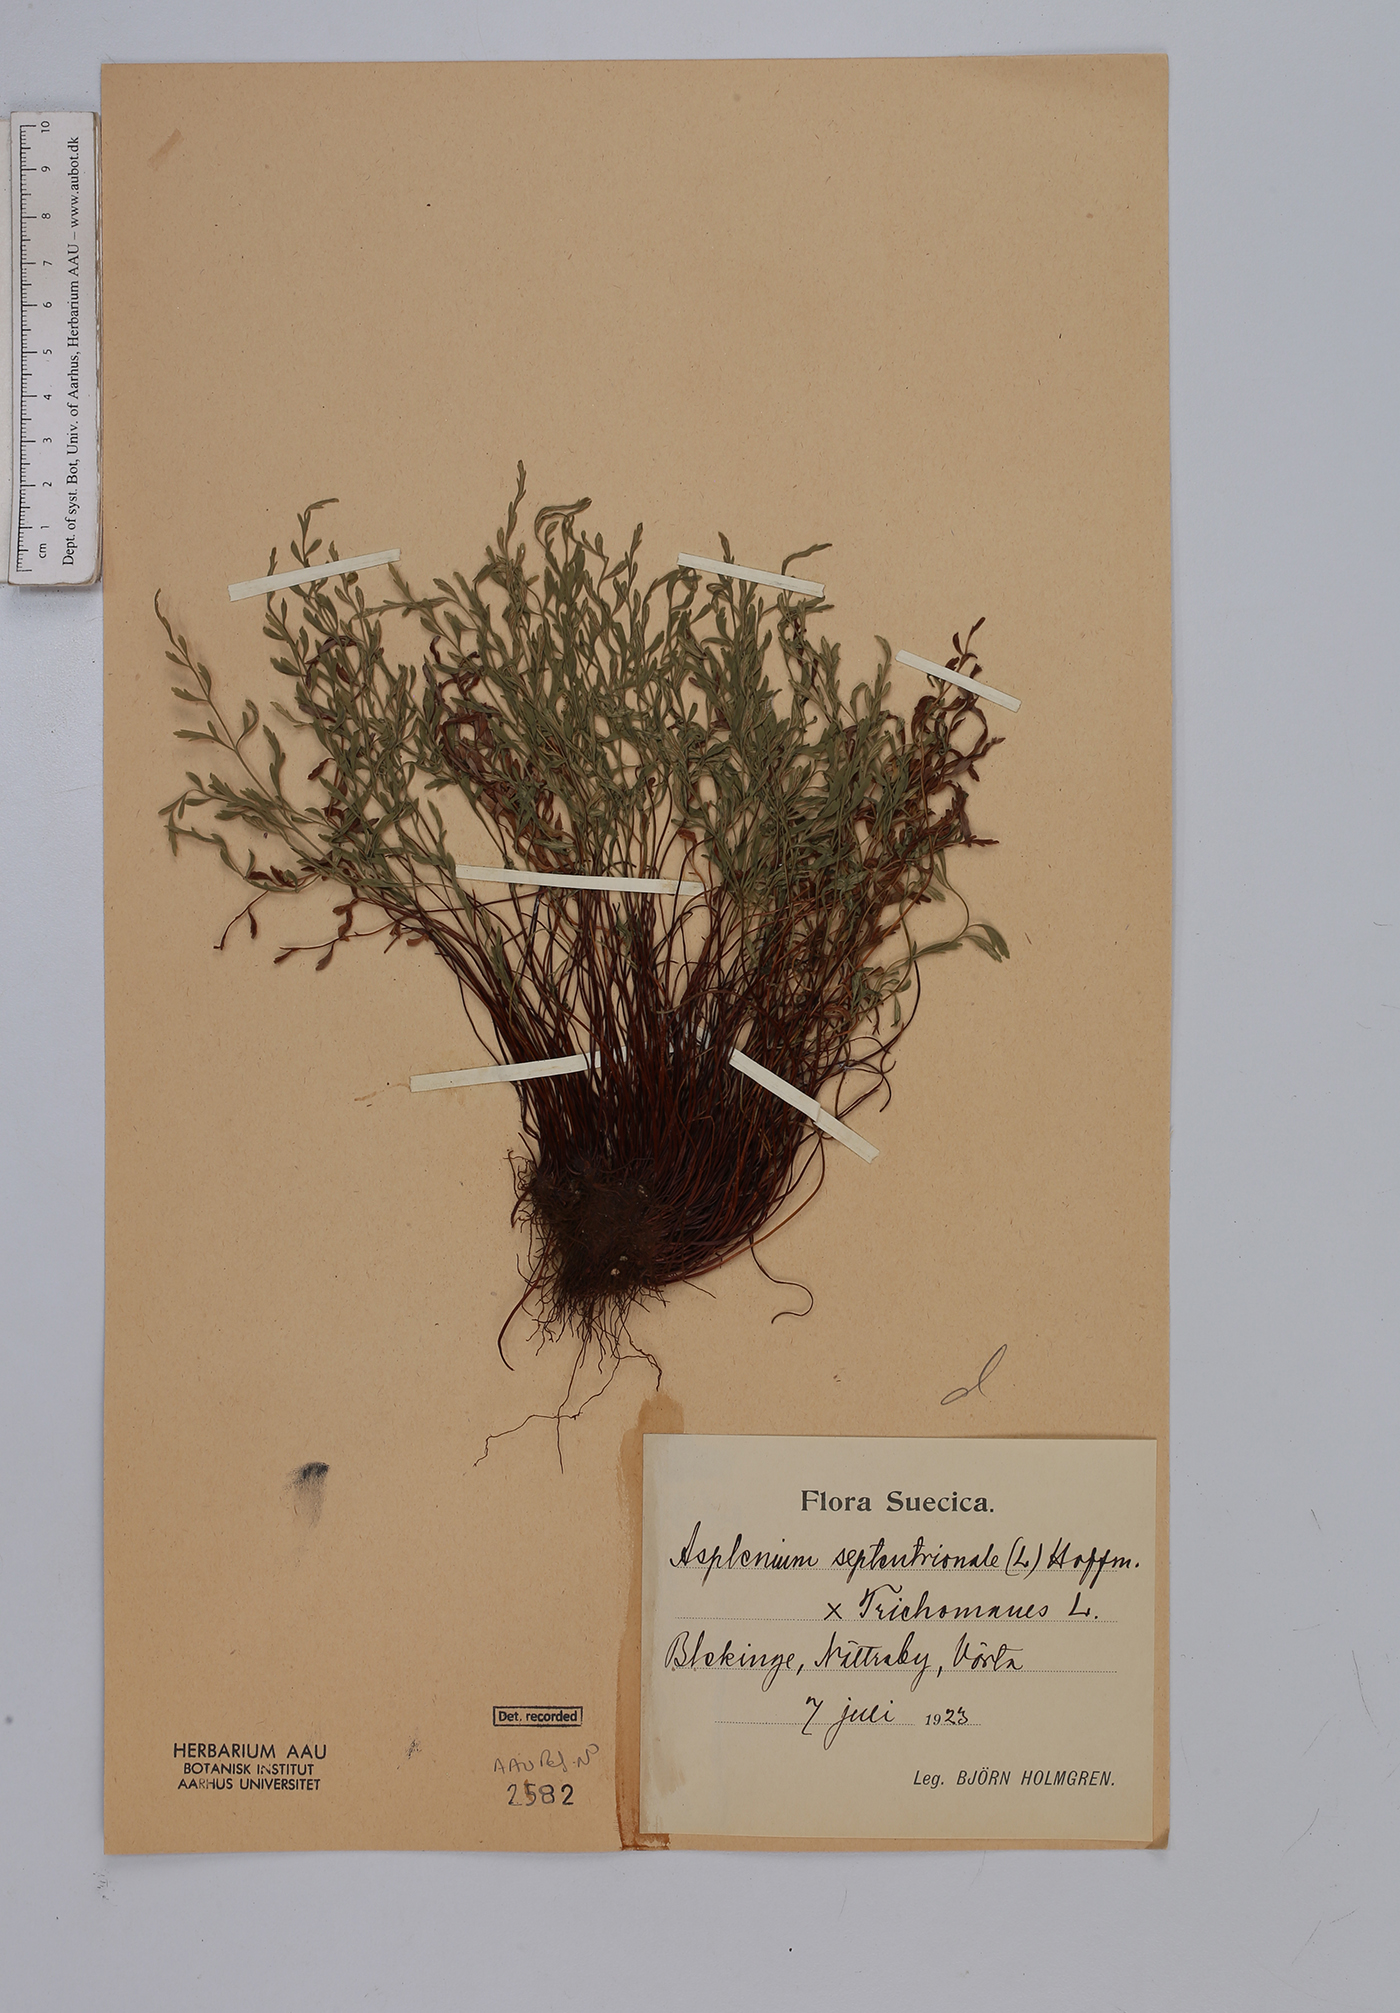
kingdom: Plantae
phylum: Tracheophyta
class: Polypodiopsida
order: Polypodiales
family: Aspleniaceae
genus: Asplenium
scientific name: Asplenium
